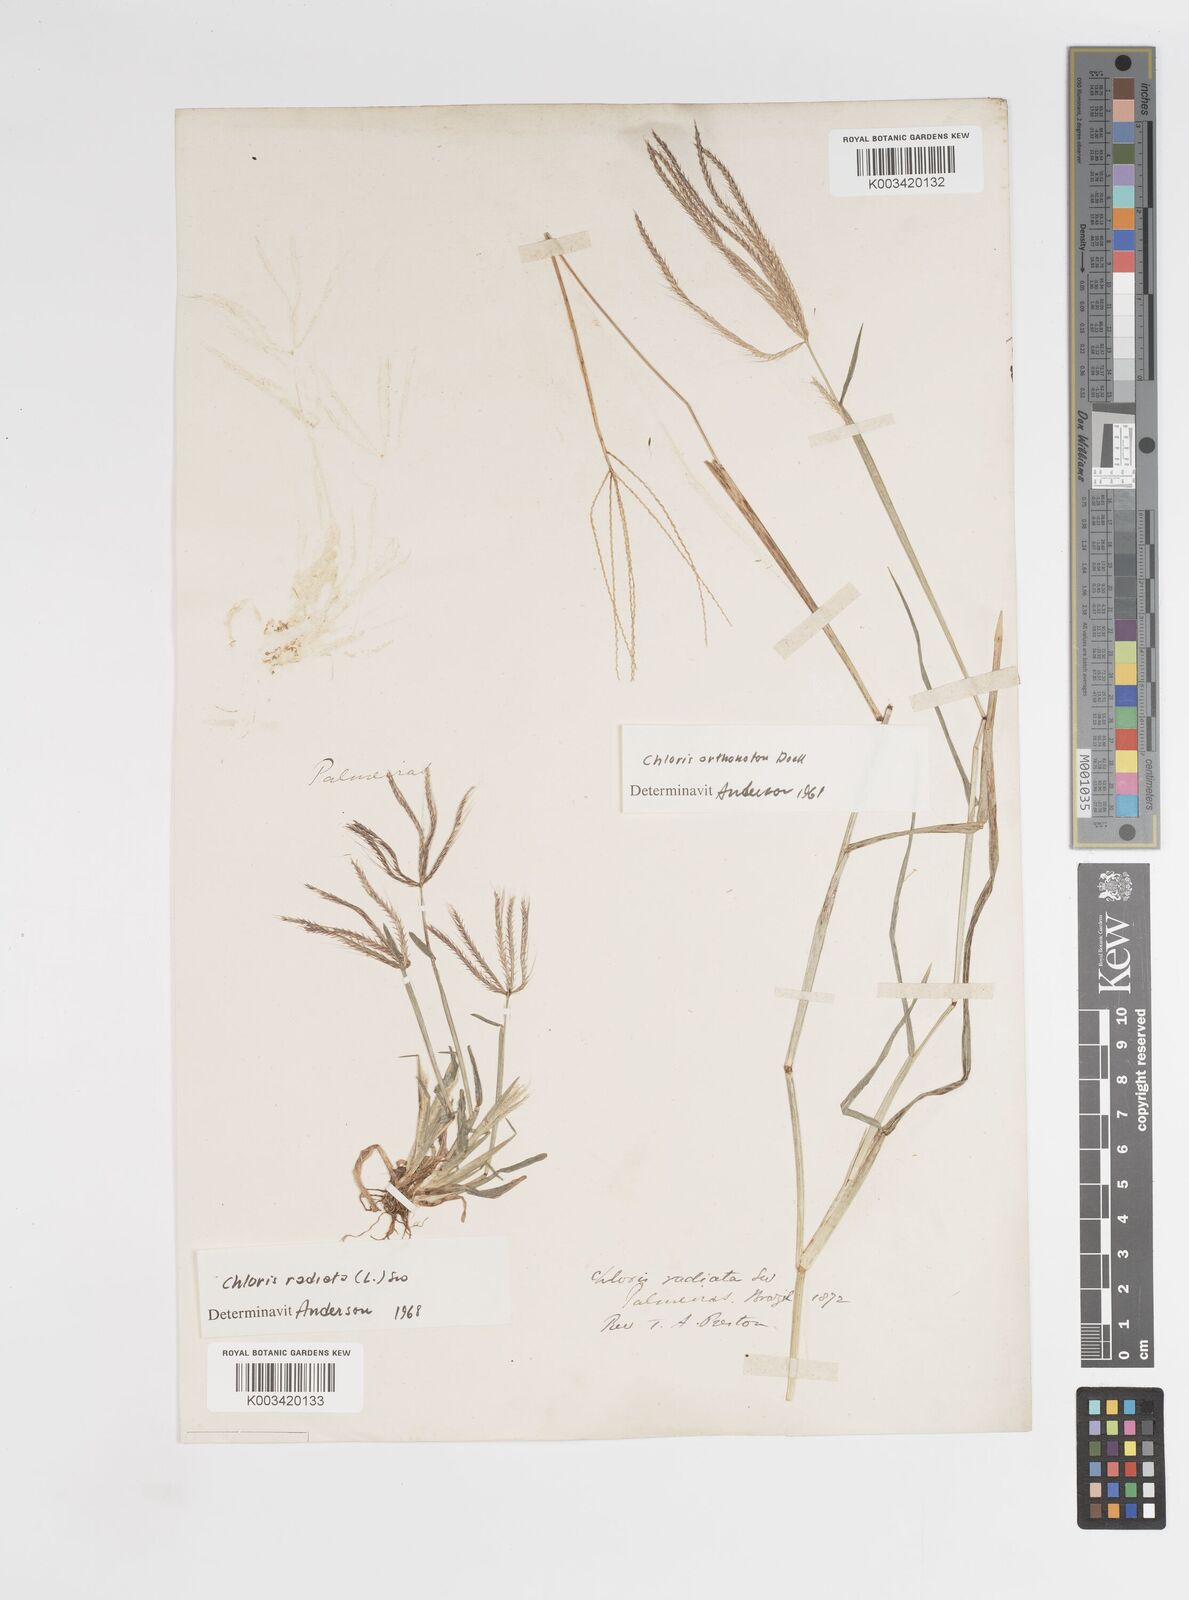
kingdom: Plantae
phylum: Tracheophyta
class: Liliopsida
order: Poales
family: Poaceae
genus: Chloris
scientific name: Chloris radiata
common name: Radiate fingergrass
